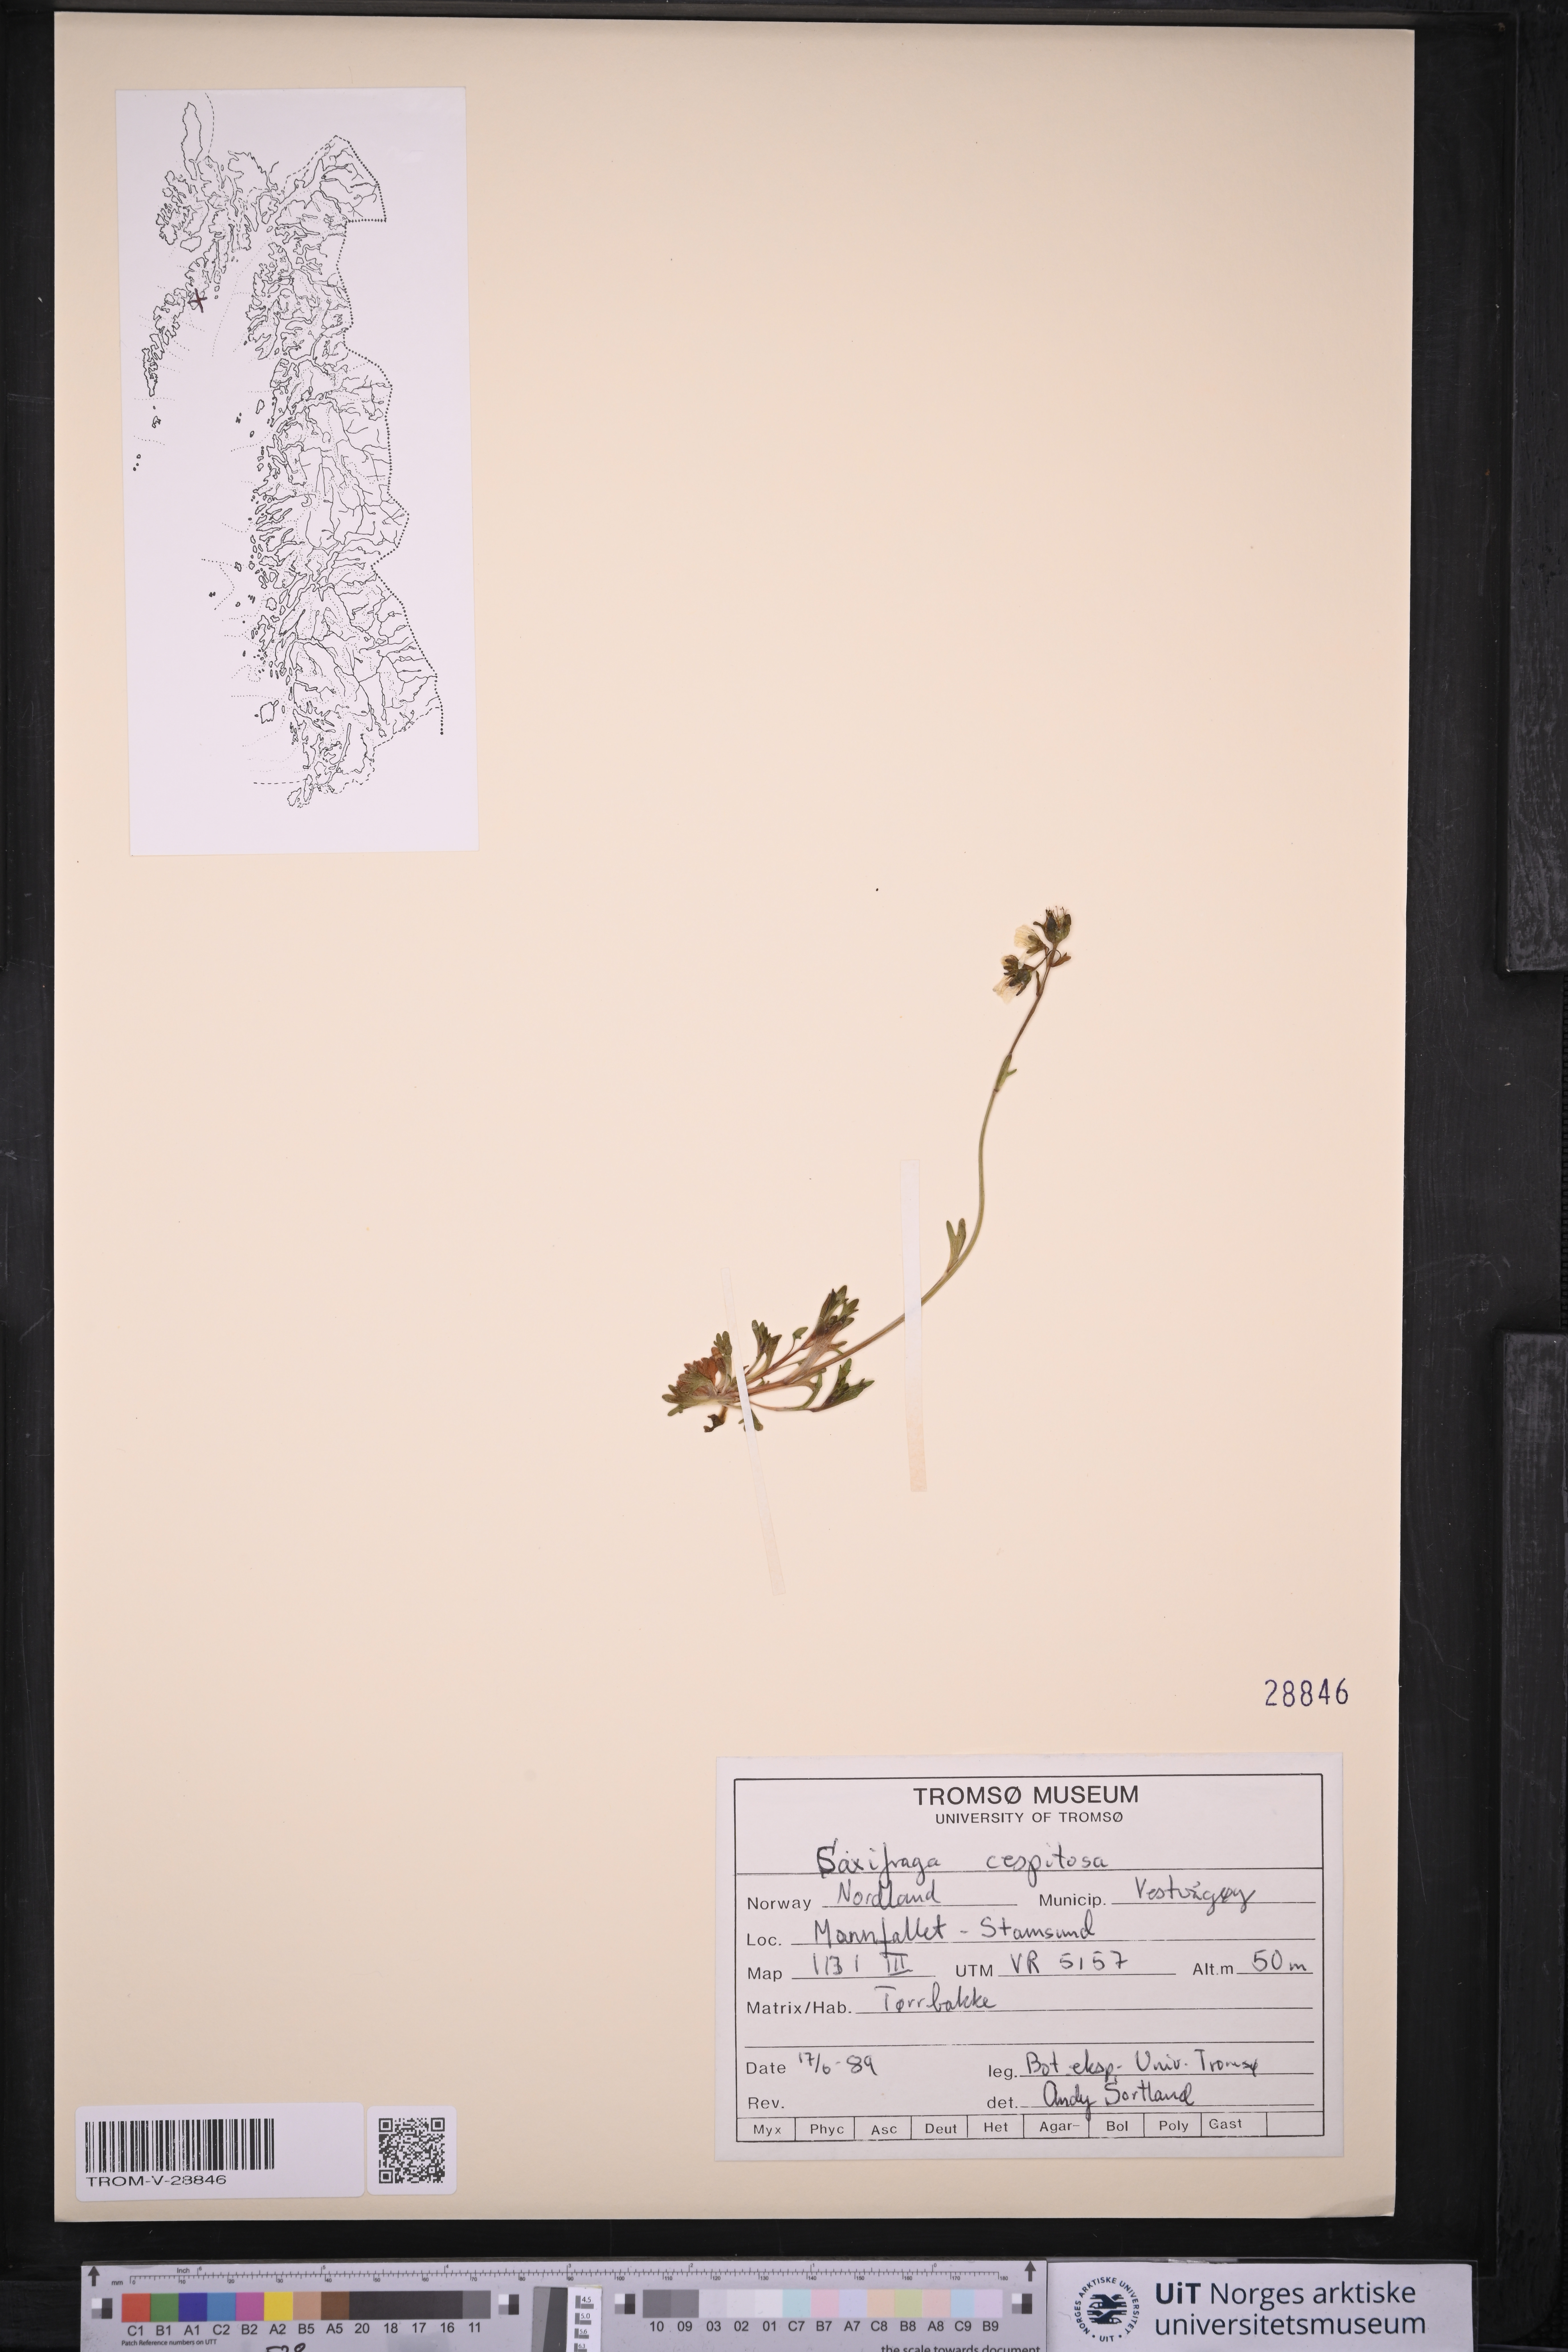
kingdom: Plantae
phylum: Tracheophyta
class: Magnoliopsida
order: Saxifragales
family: Saxifragaceae
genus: Saxifraga
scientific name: Saxifraga cespitosa
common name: Tufted saxifrage
